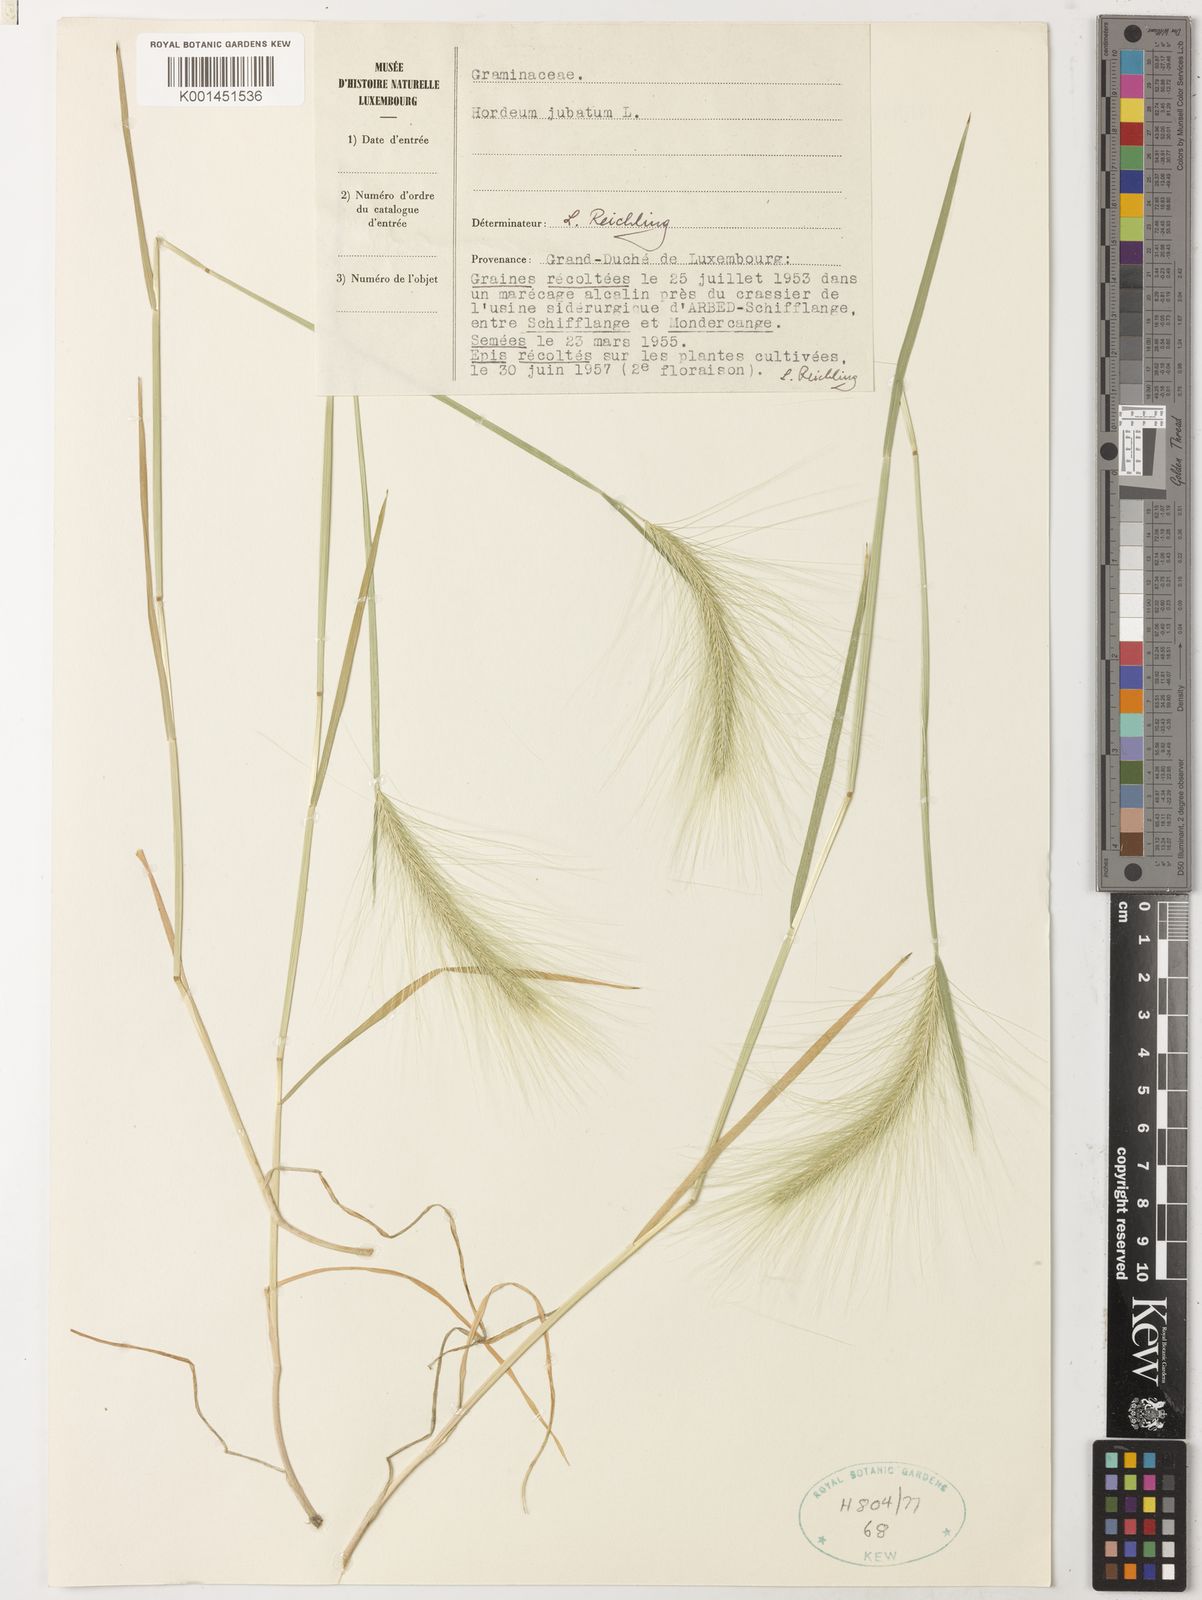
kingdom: Plantae
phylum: Tracheophyta
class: Liliopsida
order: Poales
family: Poaceae
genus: Hordeum
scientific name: Hordeum jubatum
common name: Foxtail barley
